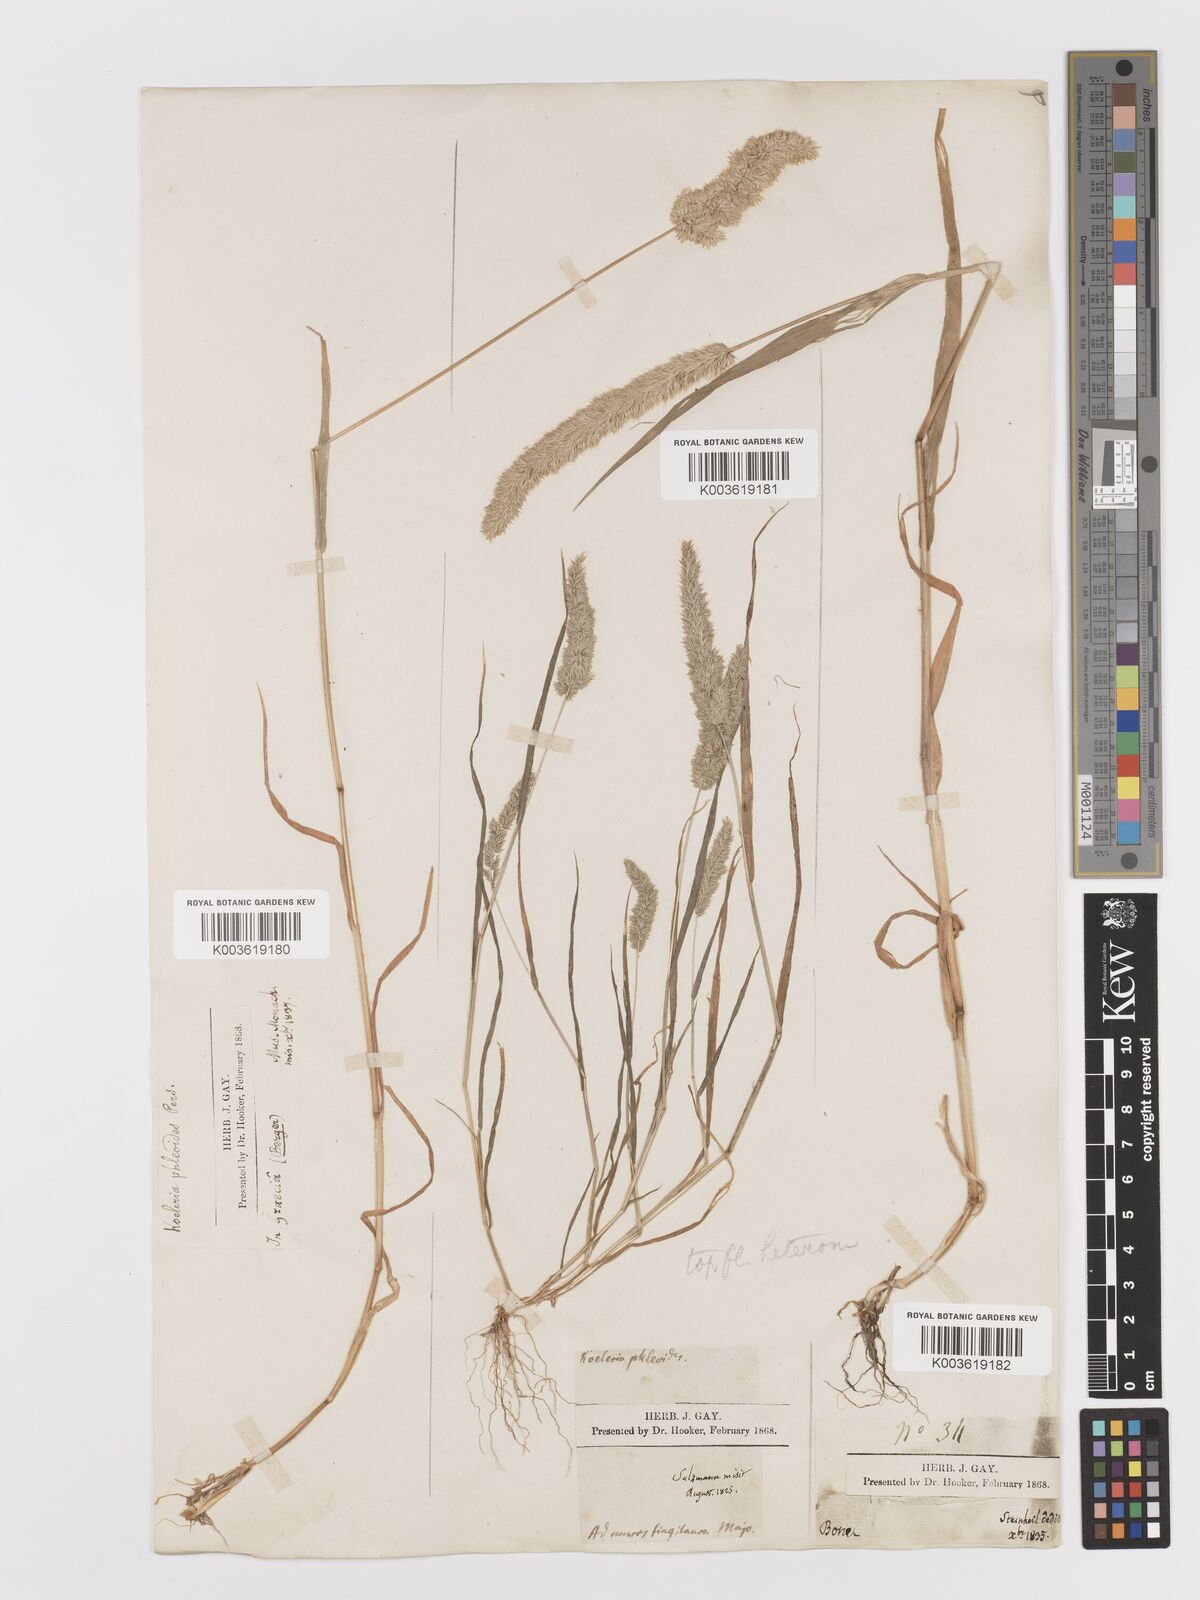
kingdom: Plantae
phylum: Tracheophyta
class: Liliopsida
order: Poales
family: Poaceae
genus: Rostraria
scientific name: Rostraria cristata
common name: Mediterranean hair-grass
